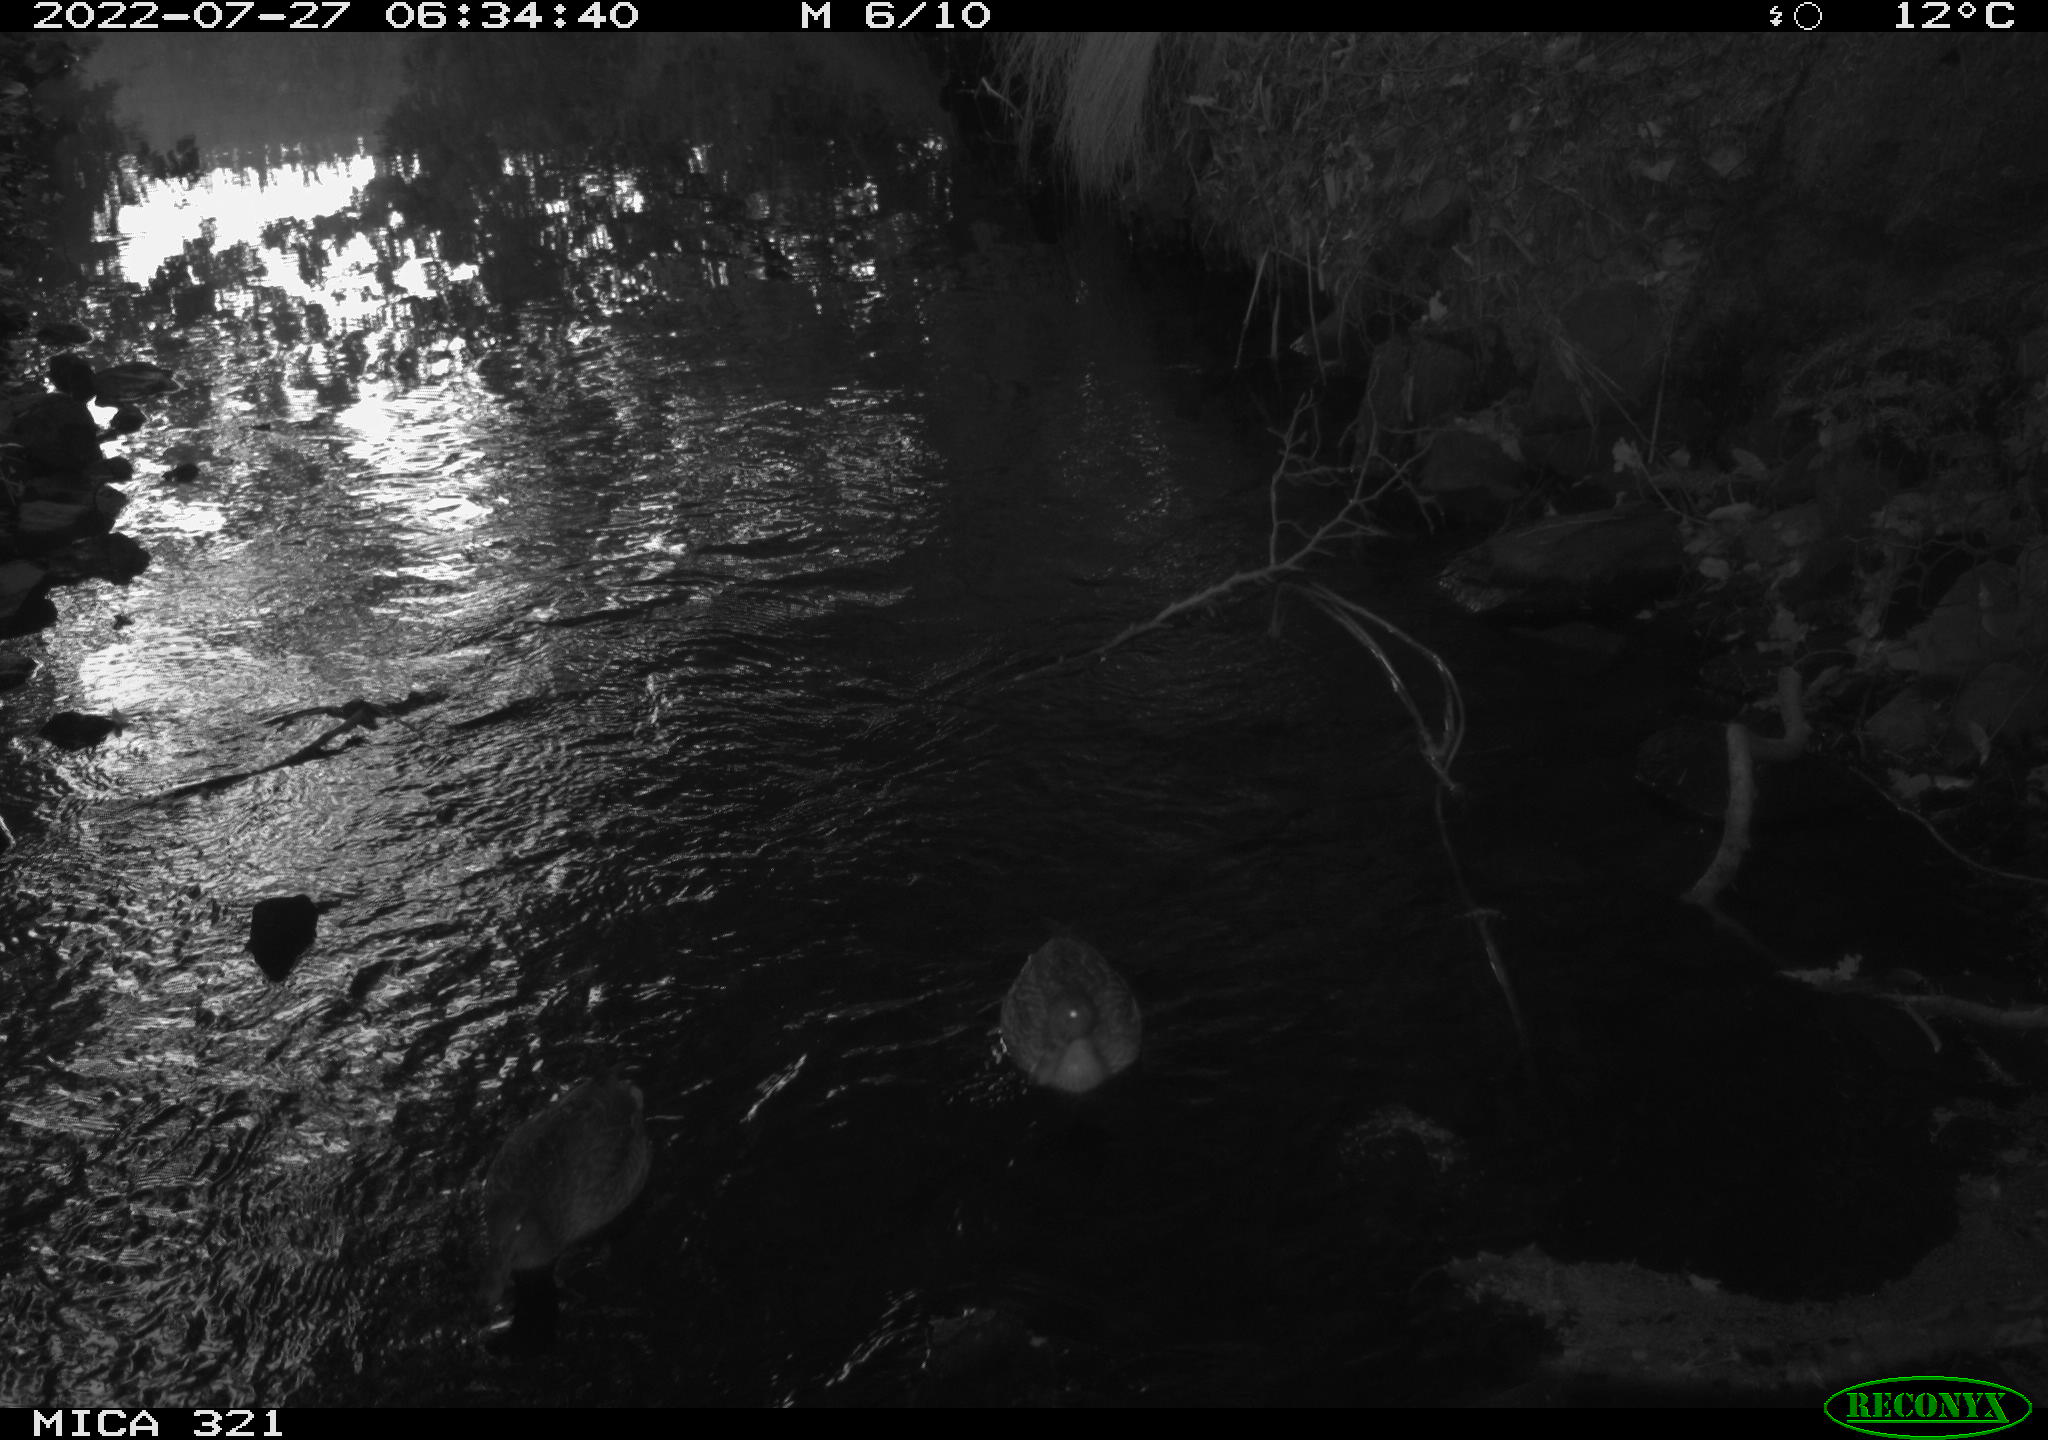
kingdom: Animalia
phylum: Chordata
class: Aves
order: Anseriformes
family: Anatidae
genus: Anas
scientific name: Anas platyrhynchos
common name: Mallard
